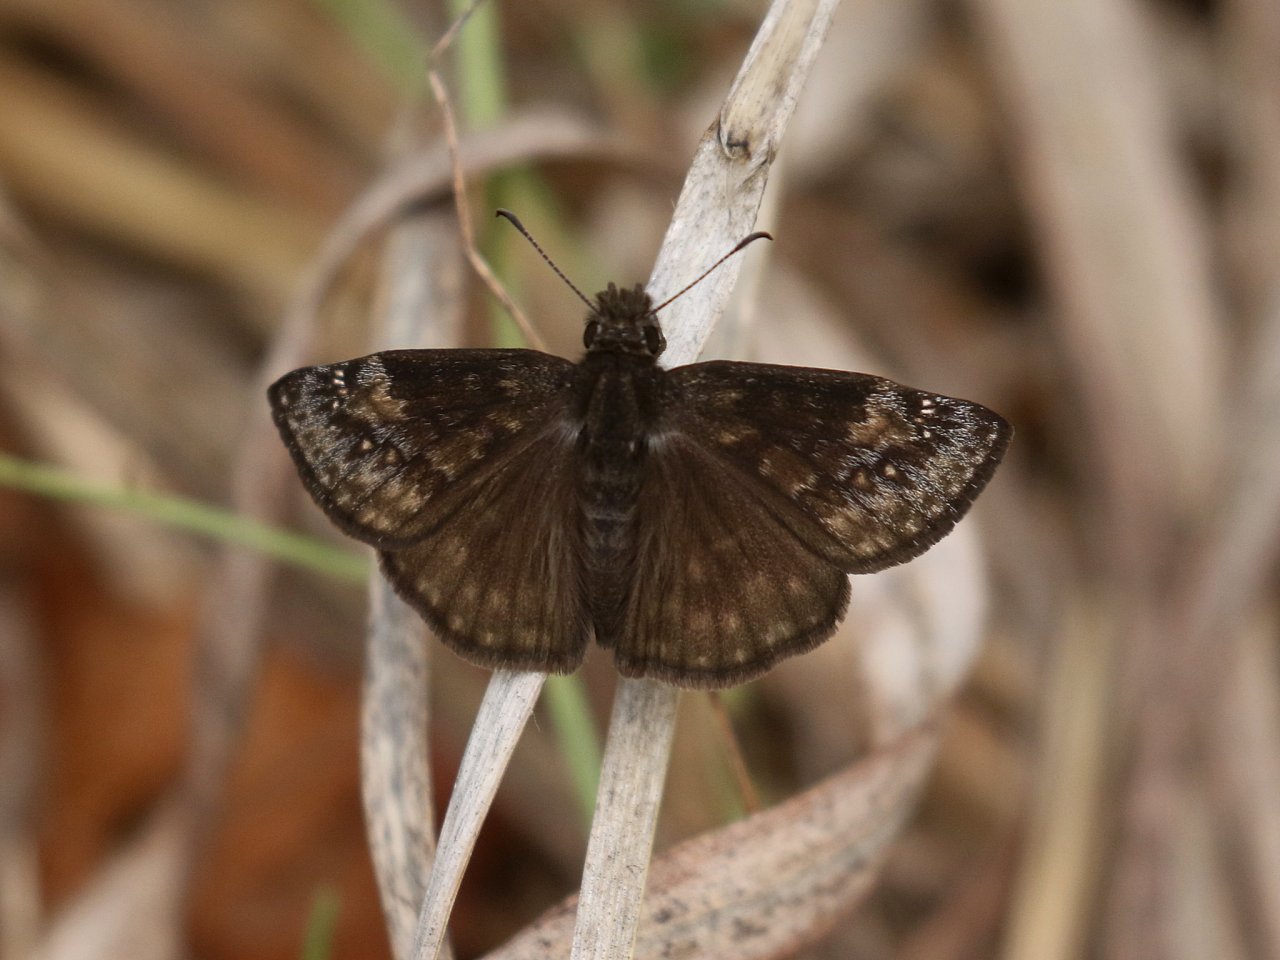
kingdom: Animalia
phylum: Arthropoda
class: Insecta
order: Lepidoptera
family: Hesperiidae
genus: Gesta
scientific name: Gesta
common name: Wild Indigo Duskywing
